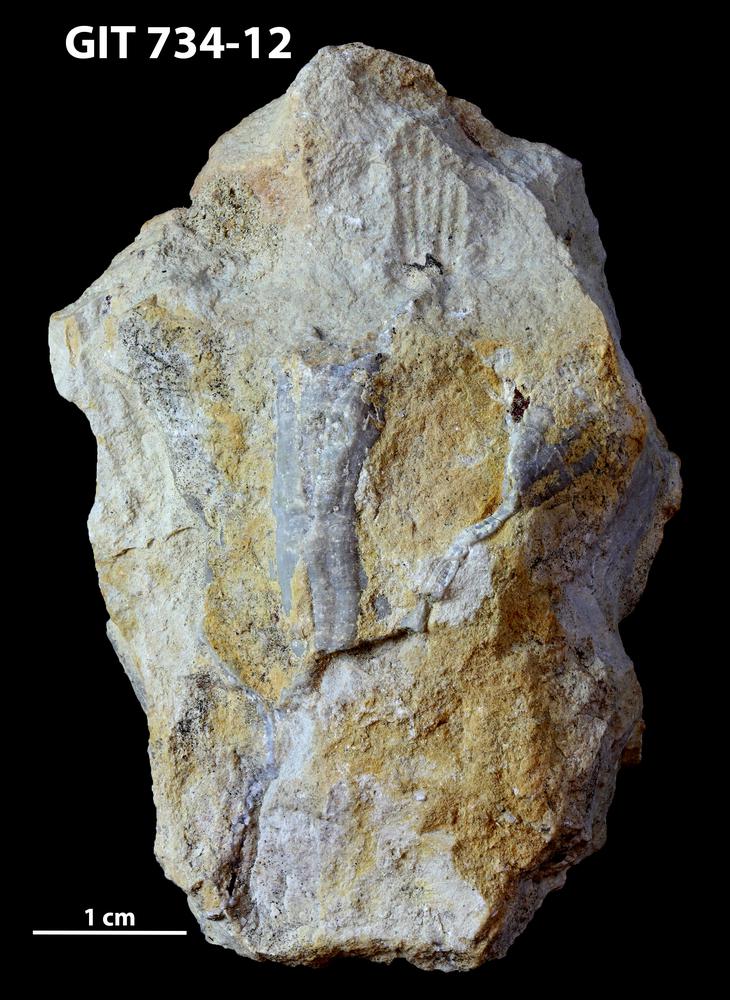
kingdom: Animalia
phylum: Cnidaria
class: Anthozoa
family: Cateniporidae
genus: Catenipora
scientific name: Catenipora
